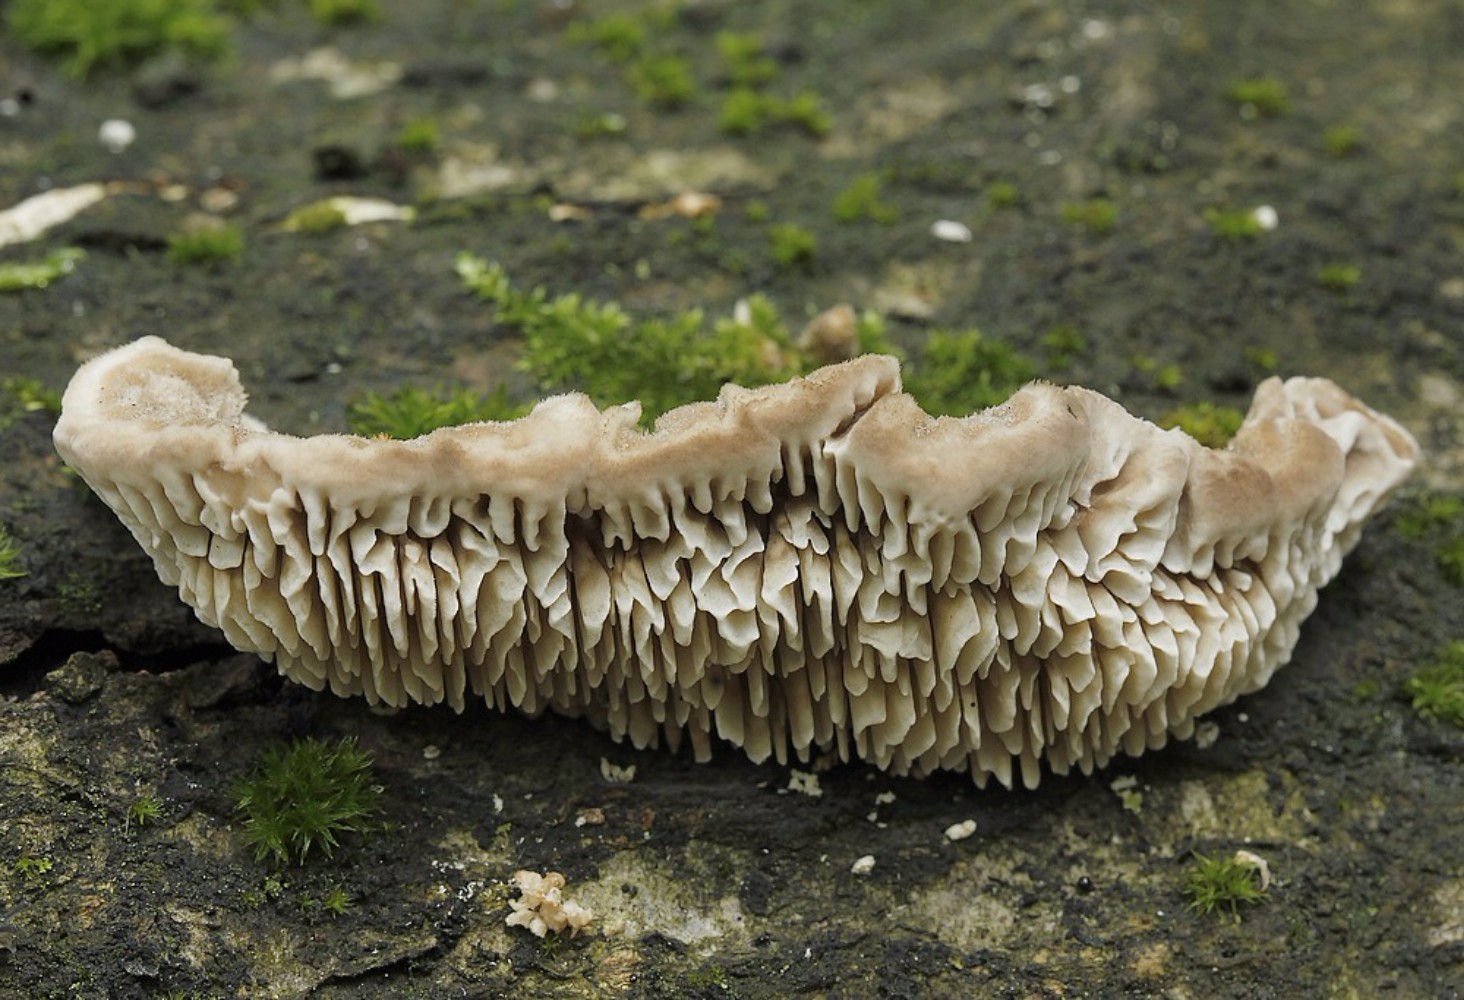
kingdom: Fungi
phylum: Basidiomycota
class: Agaricomycetes
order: Polyporales
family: Polyporaceae
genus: Lenzites
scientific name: Lenzites betulinus
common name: birke-læderporesvamp
